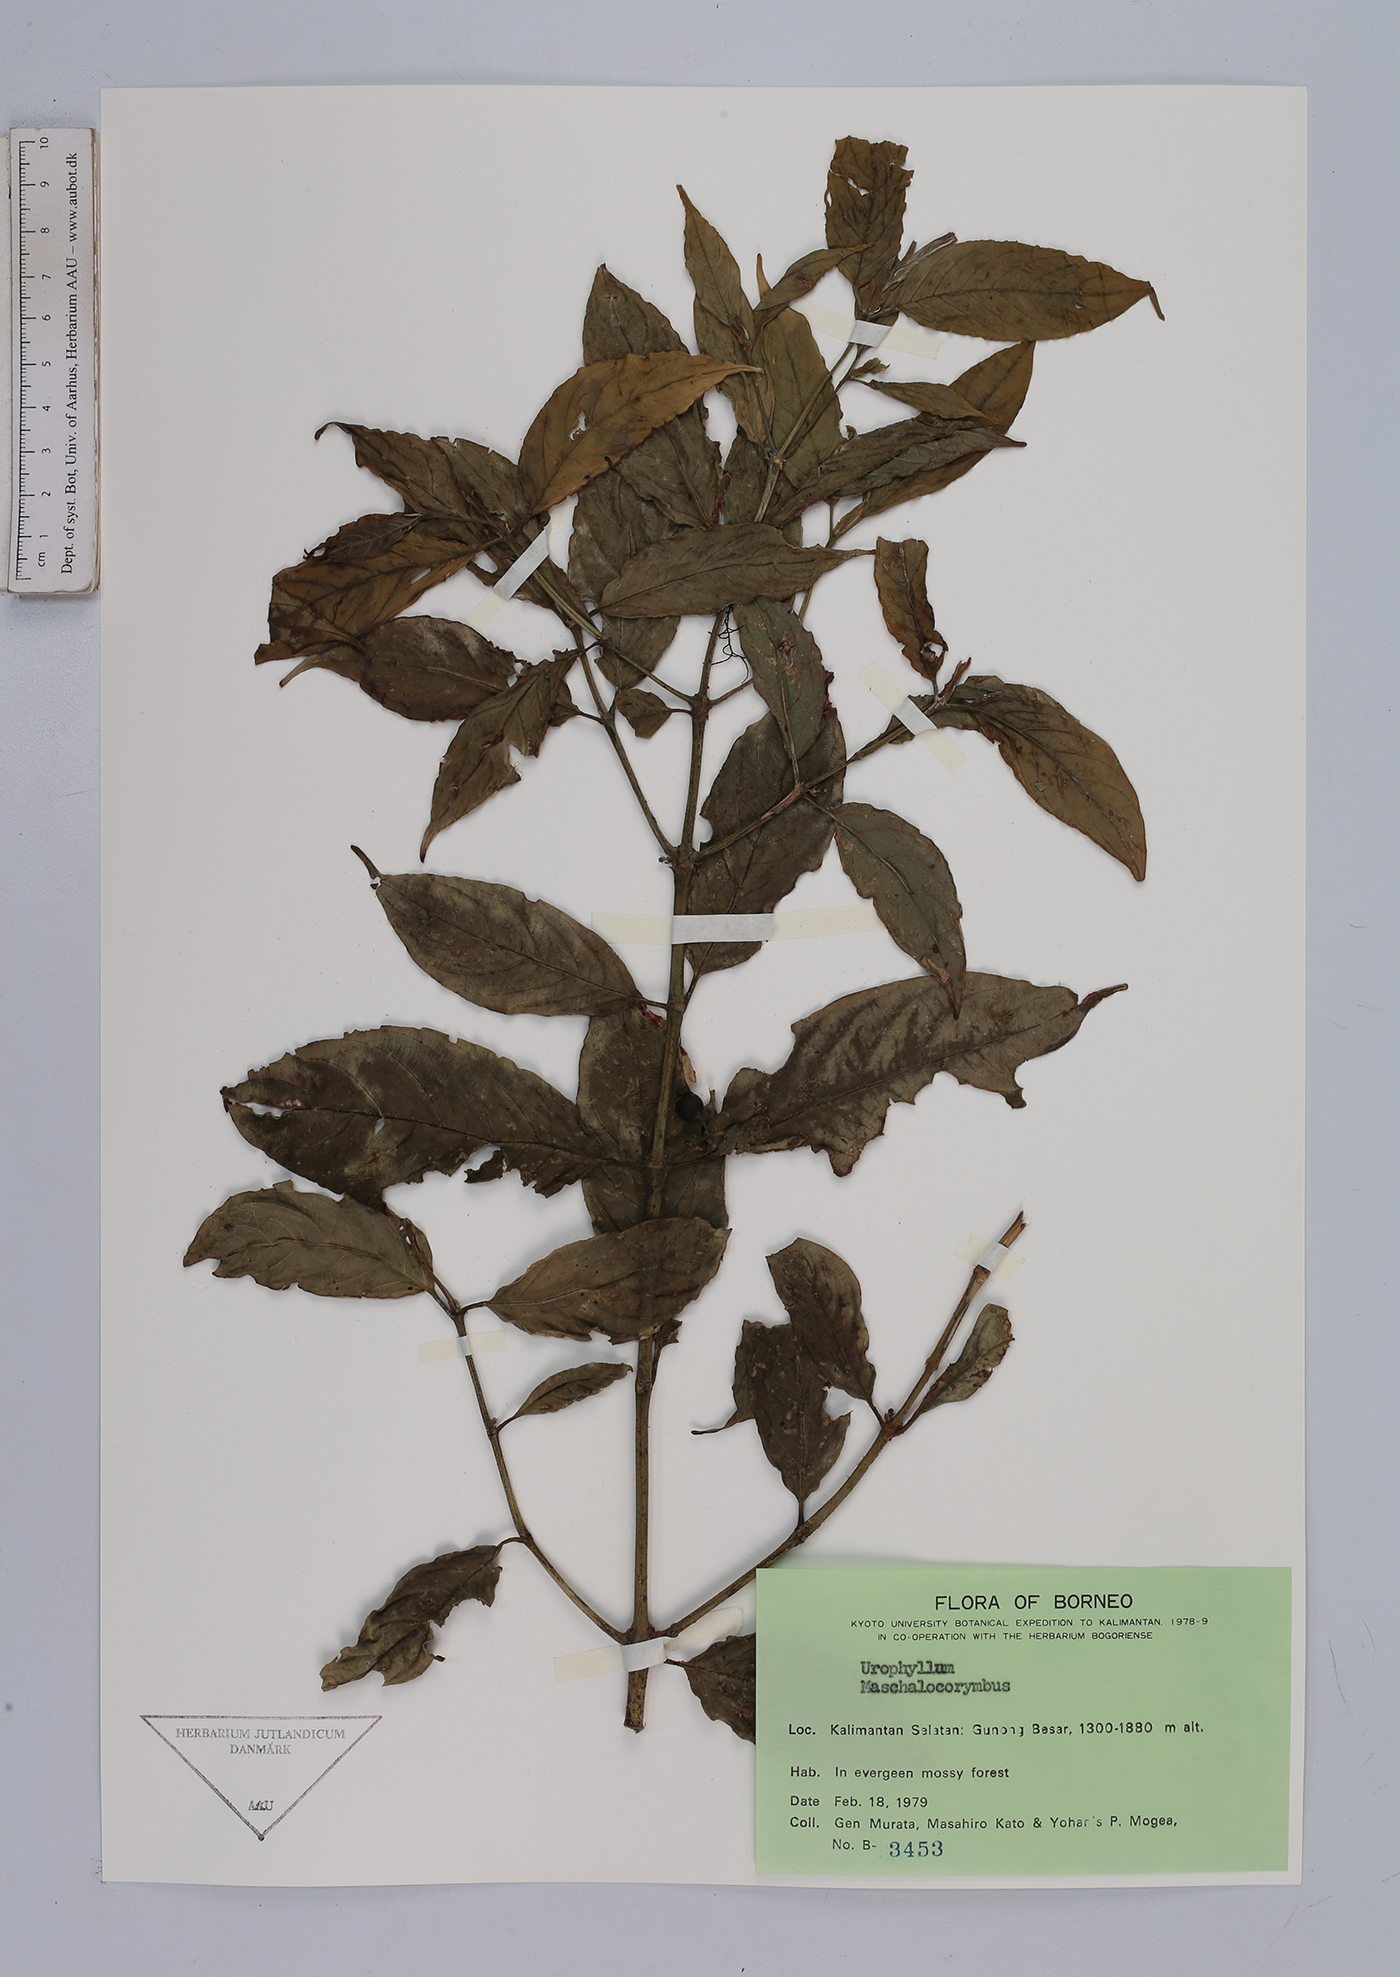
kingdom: Plantae
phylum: Tracheophyta
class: Magnoliopsida
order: Gentianales
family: Rubiaceae
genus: Urophyllum
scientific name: Urophyllum
